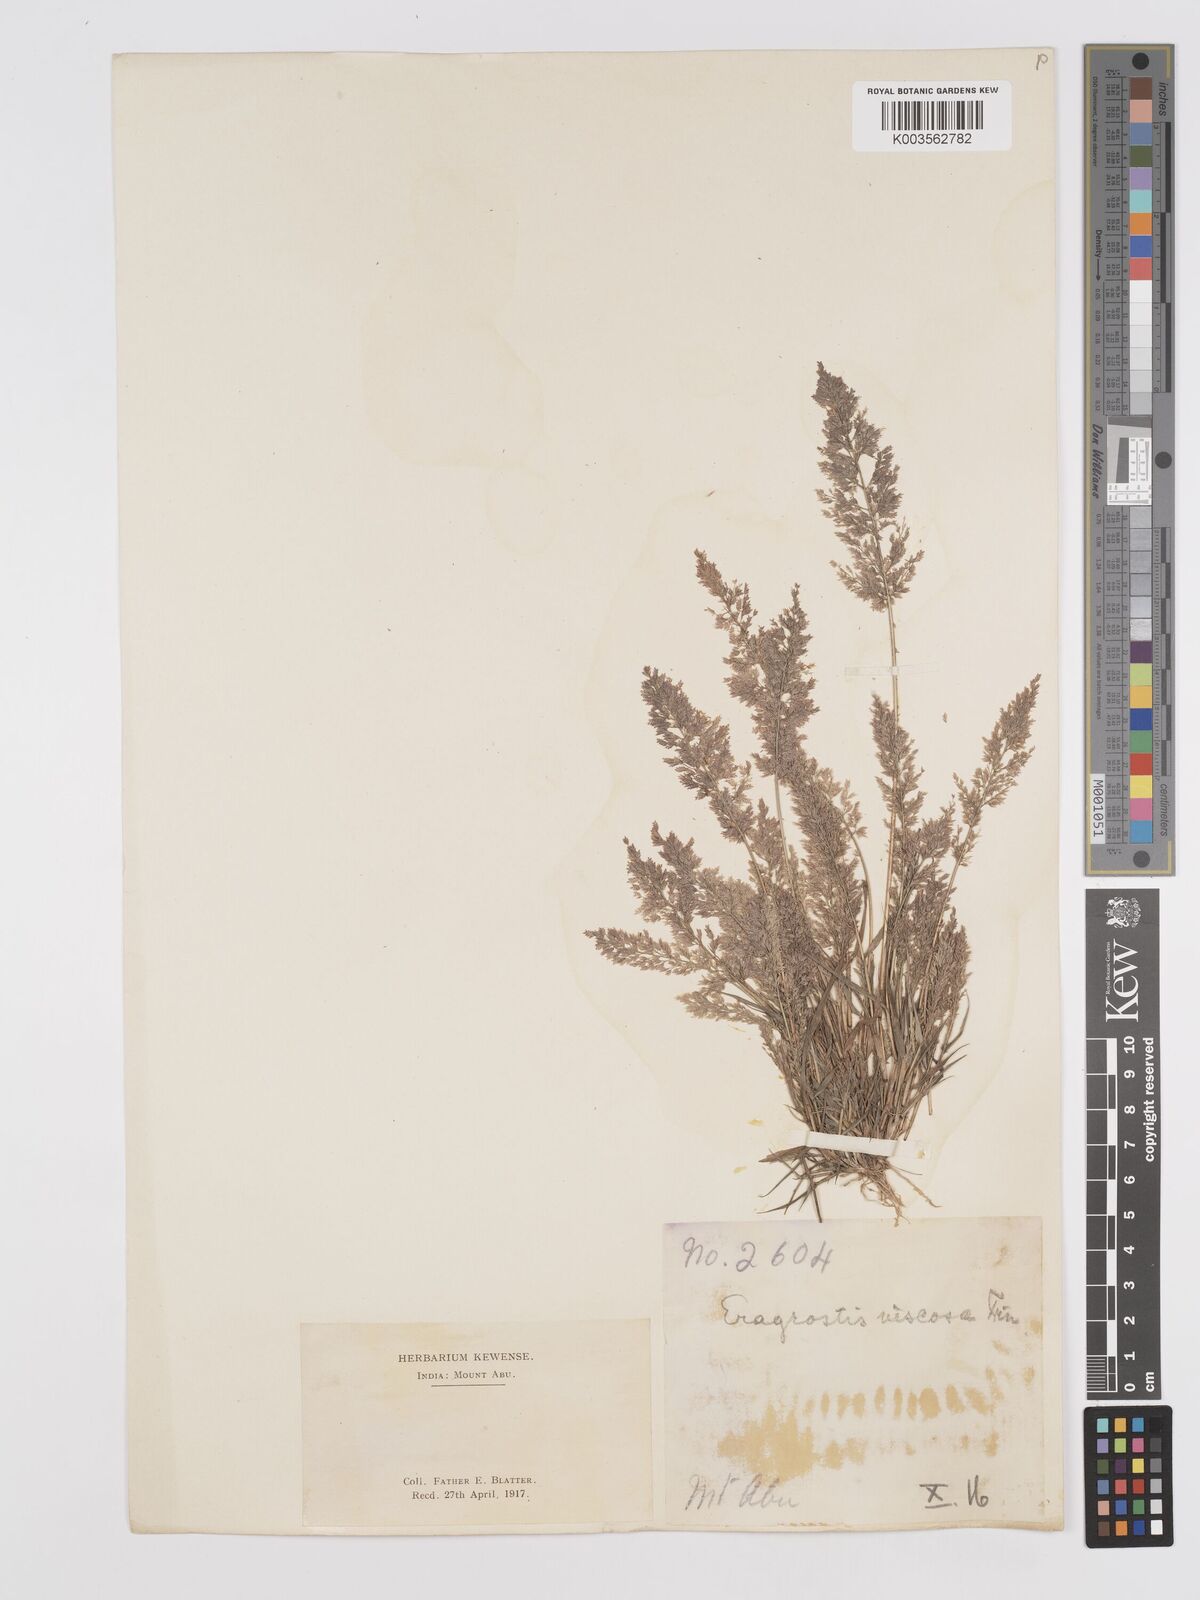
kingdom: Plantae
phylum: Tracheophyta
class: Liliopsida
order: Poales
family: Poaceae
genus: Eragrostis
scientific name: Eragrostis viscosa
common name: Sticky love grass
